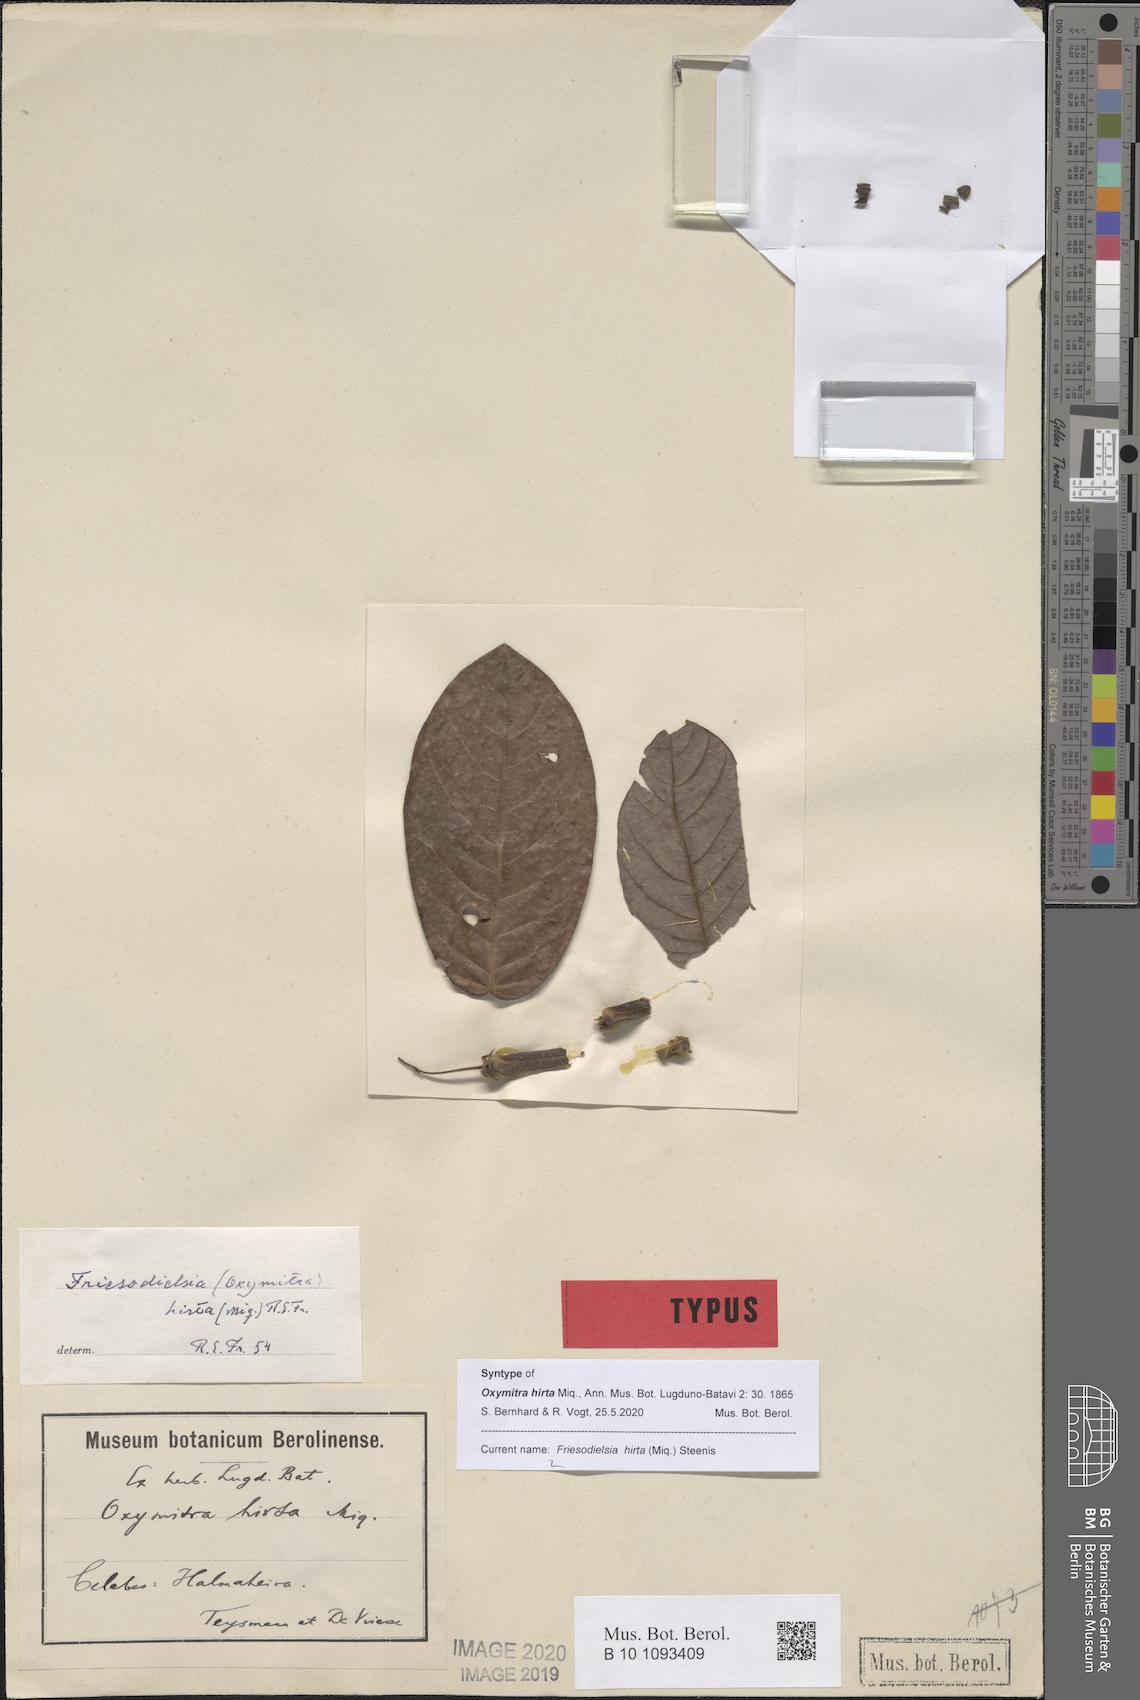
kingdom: Plantae
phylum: Tracheophyta
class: Magnoliopsida
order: Magnoliales
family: Annonaceae
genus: Friesodielsia
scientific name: Friesodielsia hirta
